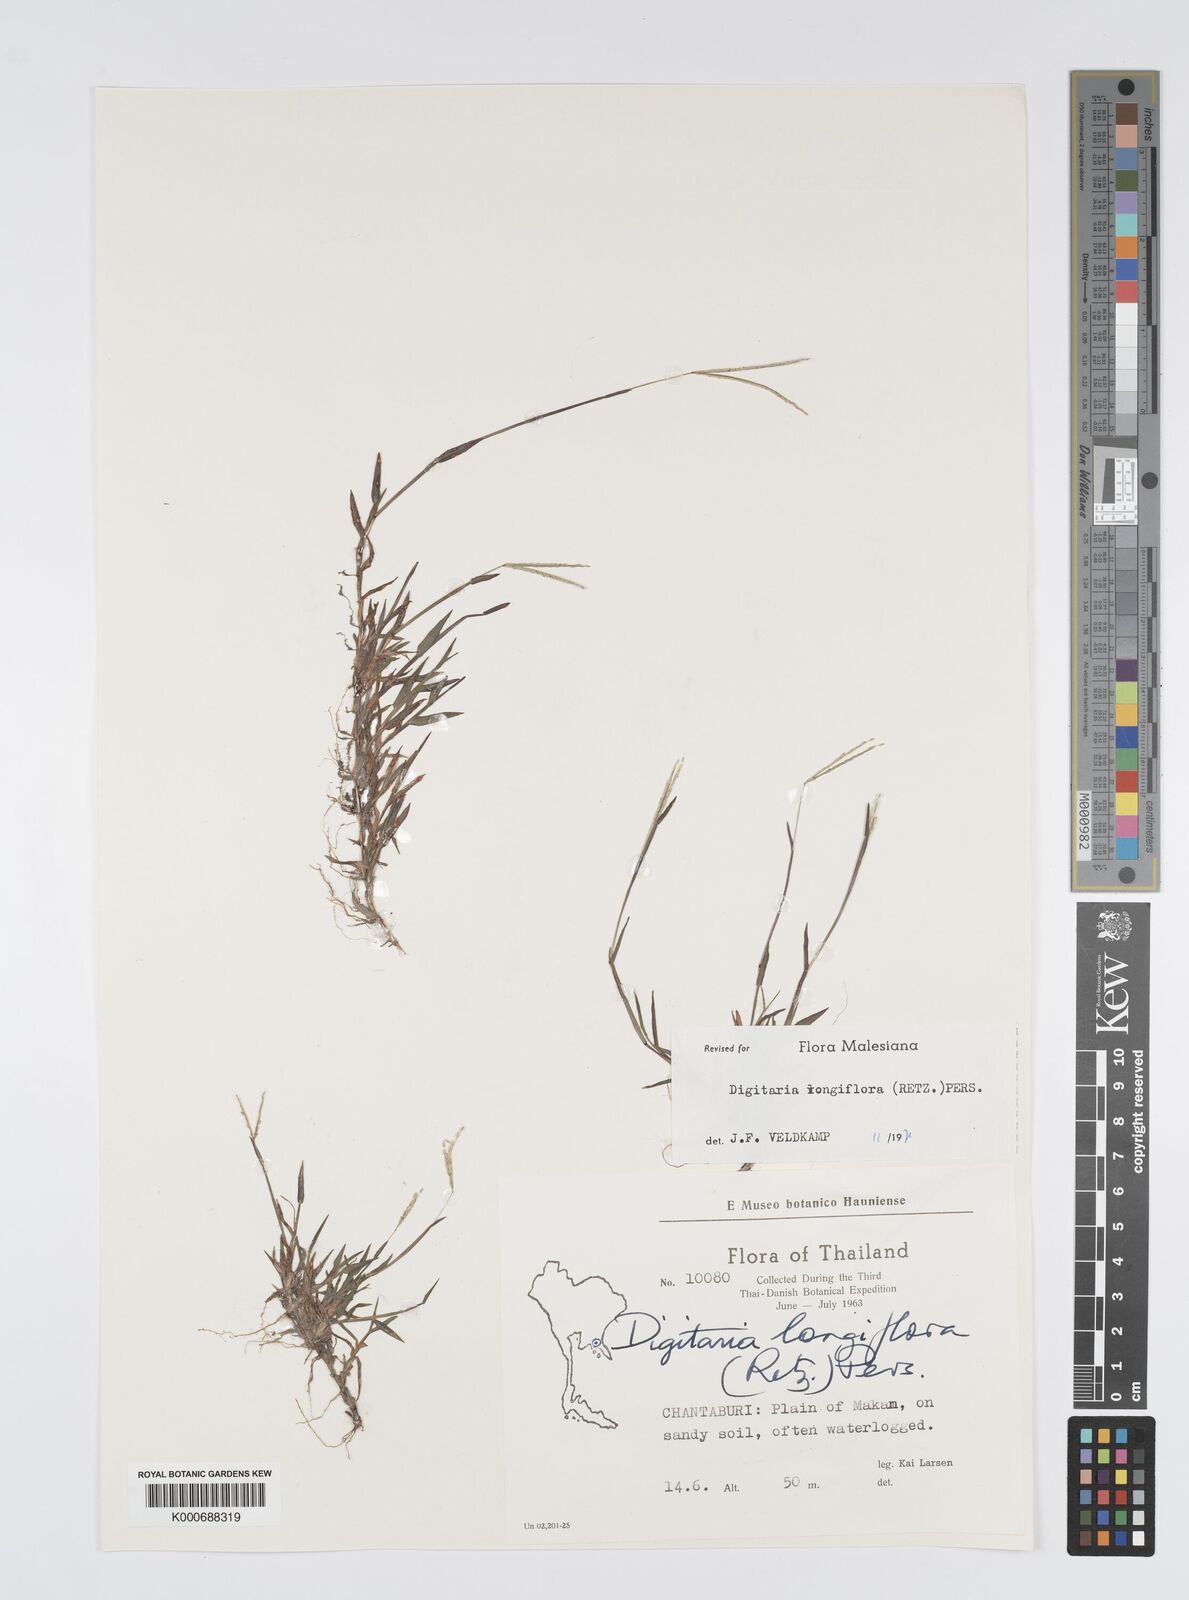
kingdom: Plantae
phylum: Tracheophyta
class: Liliopsida
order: Poales
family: Poaceae
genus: Digitaria
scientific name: Digitaria longiflora
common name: Wire crabgrass
